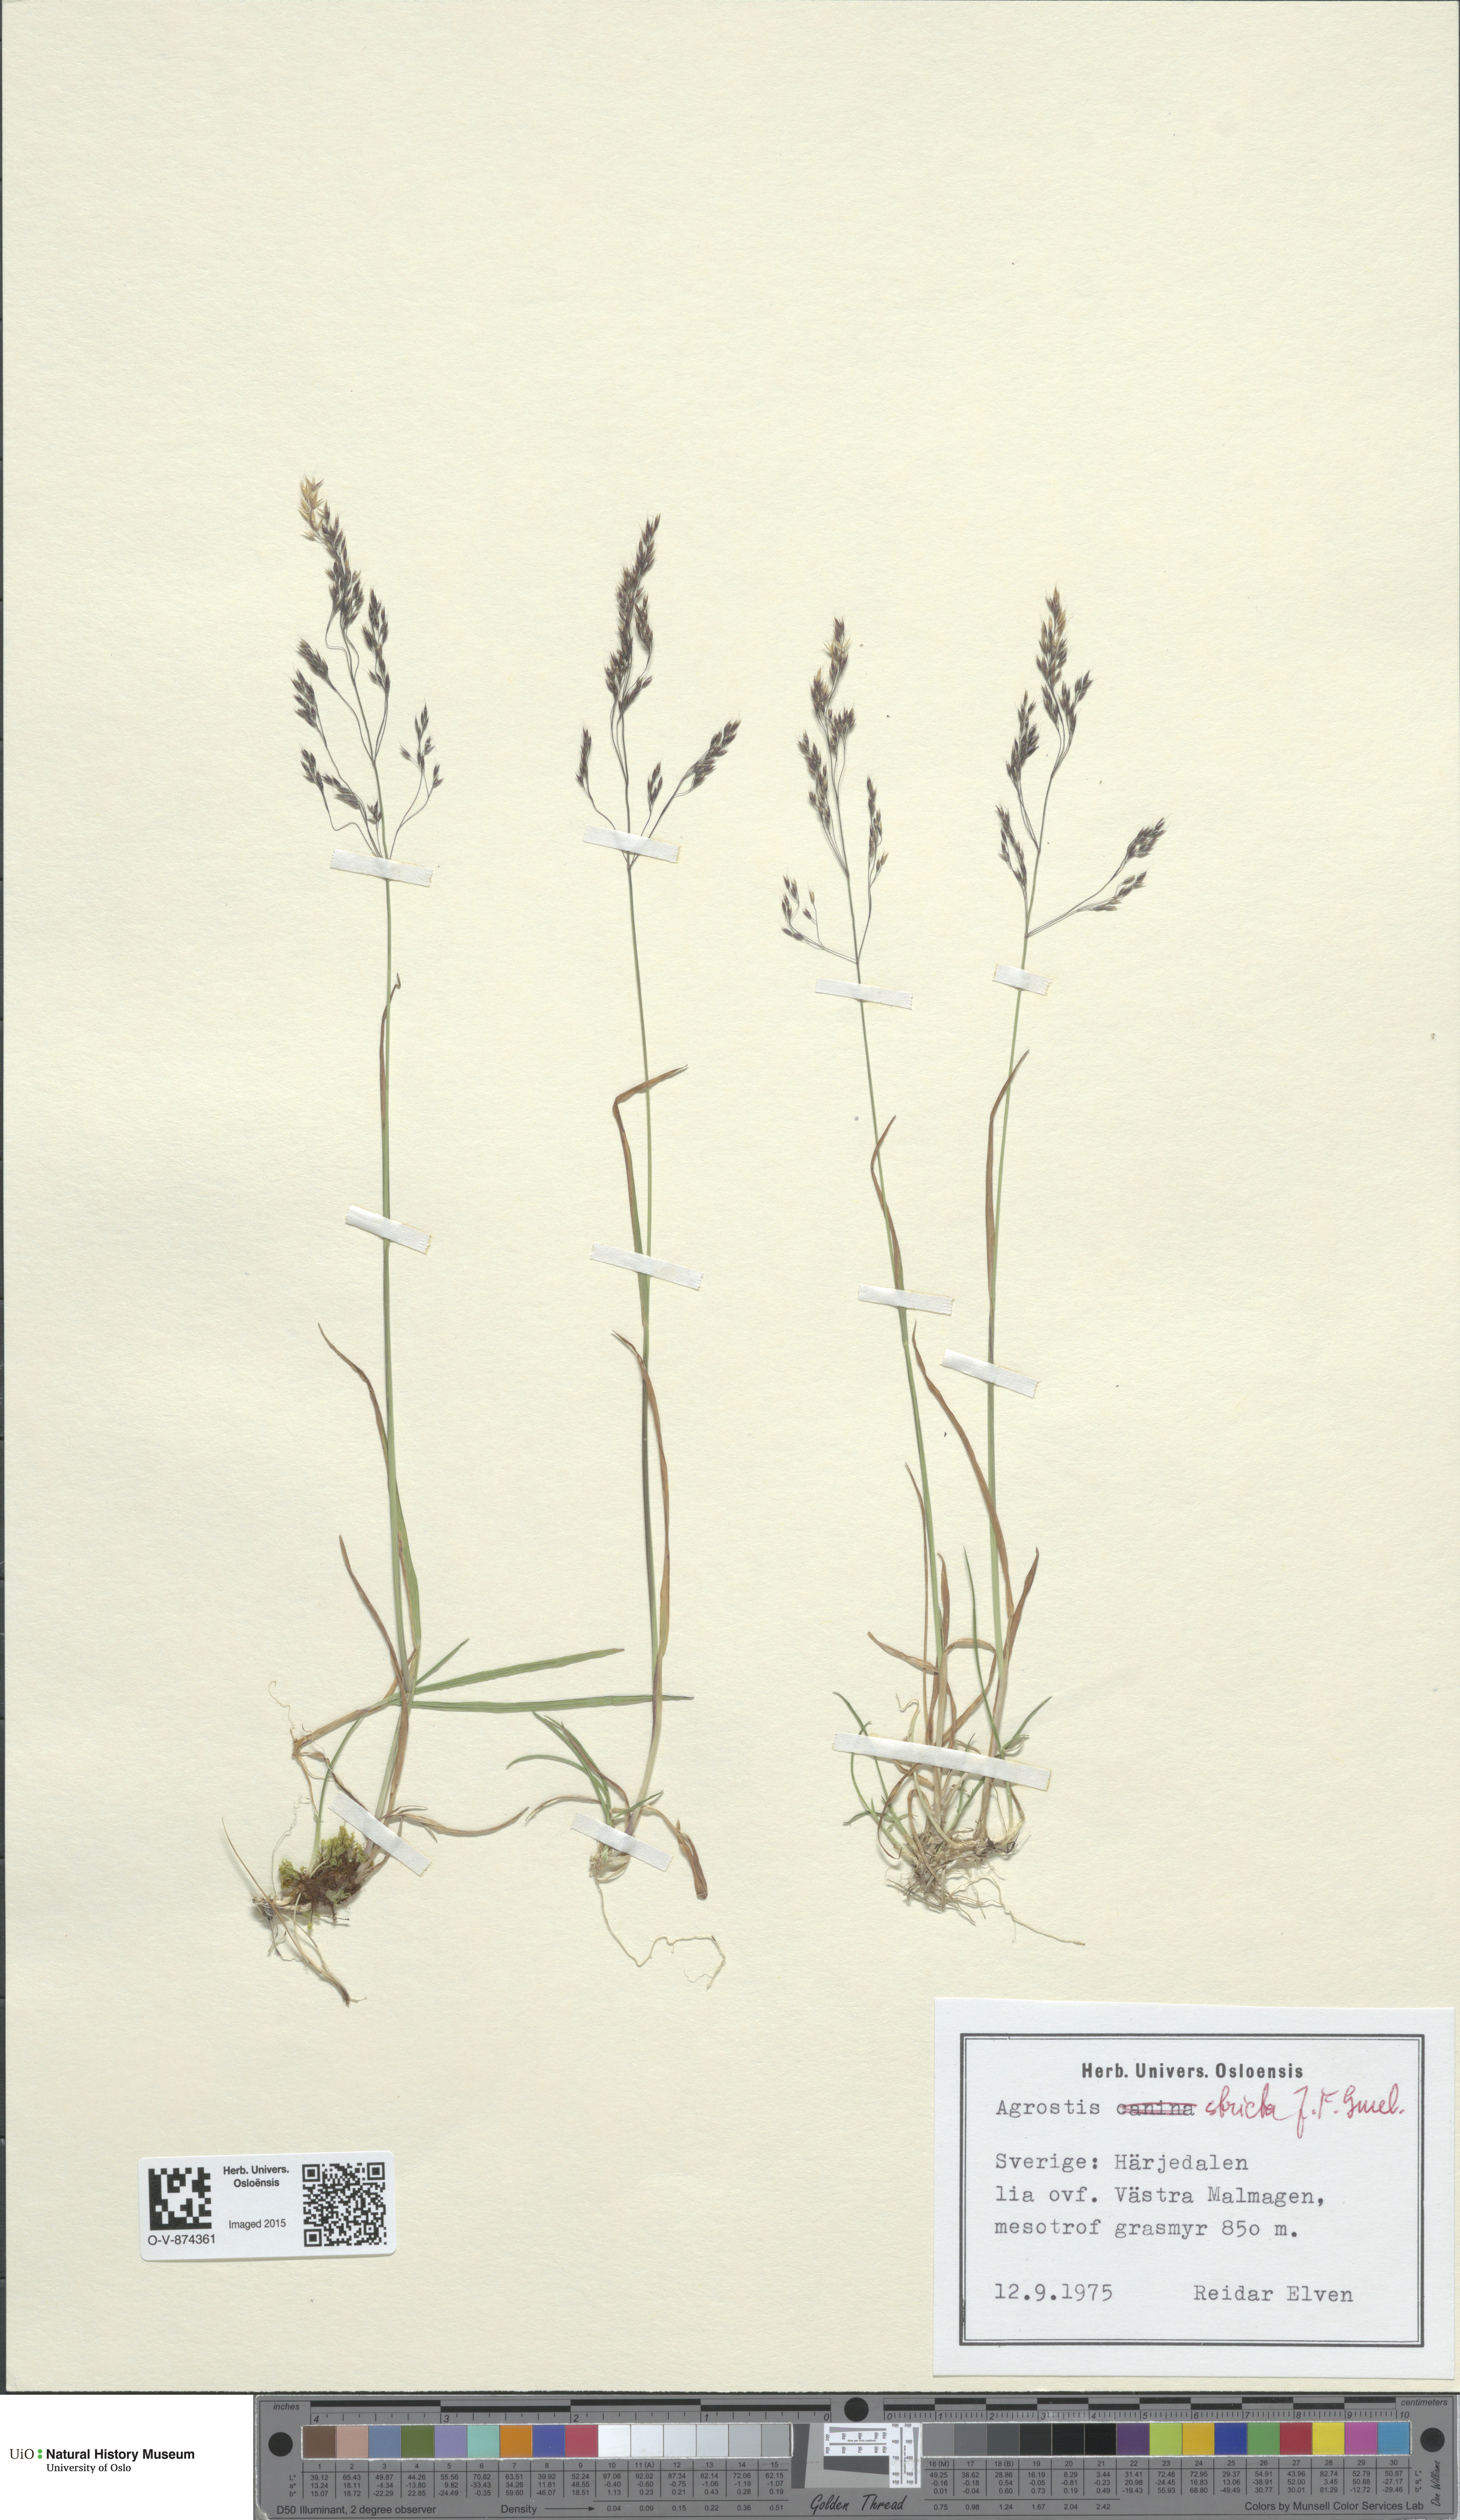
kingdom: Plantae
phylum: Tracheophyta
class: Liliopsida
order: Poales
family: Poaceae
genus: Agrostis
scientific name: Agrostis vinealis
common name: Brown bent
